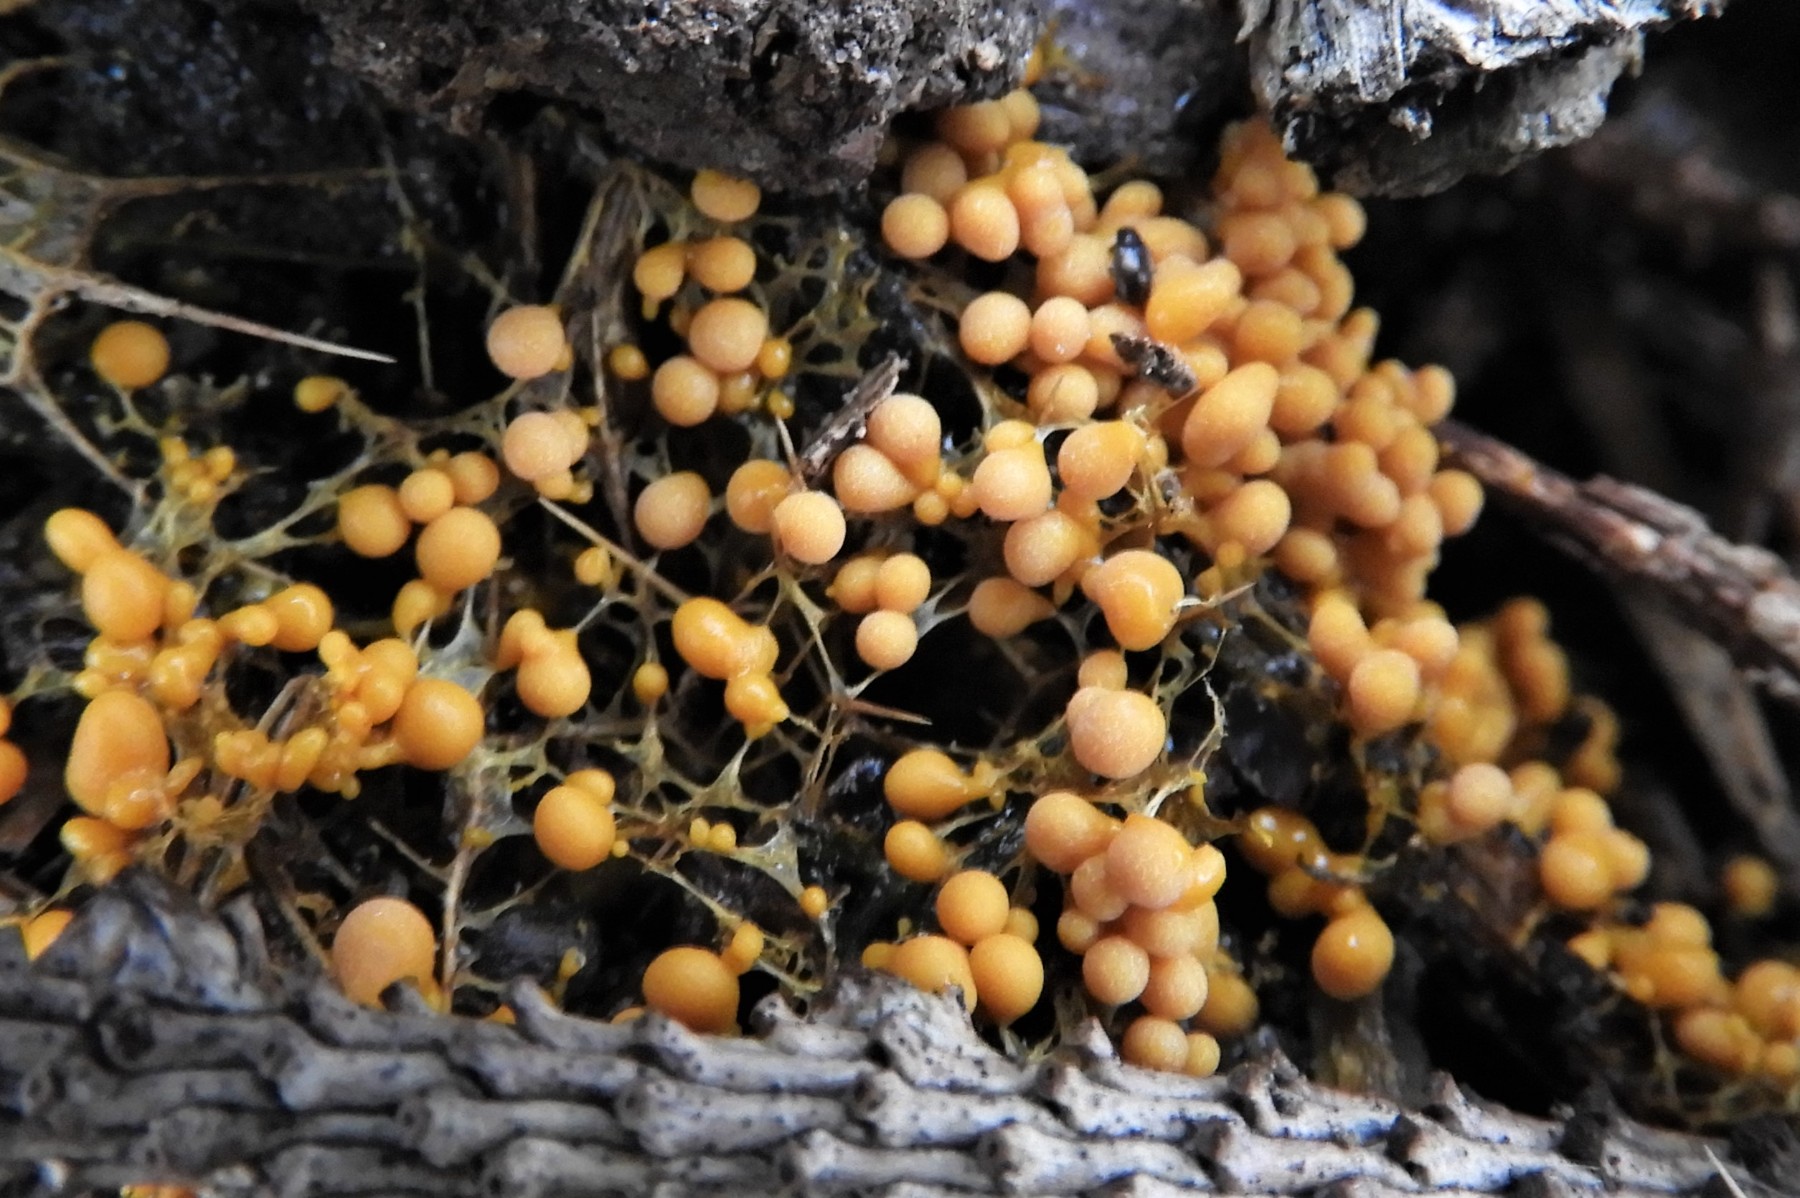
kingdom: Protozoa
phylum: Mycetozoa
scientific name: Mycetozoa
